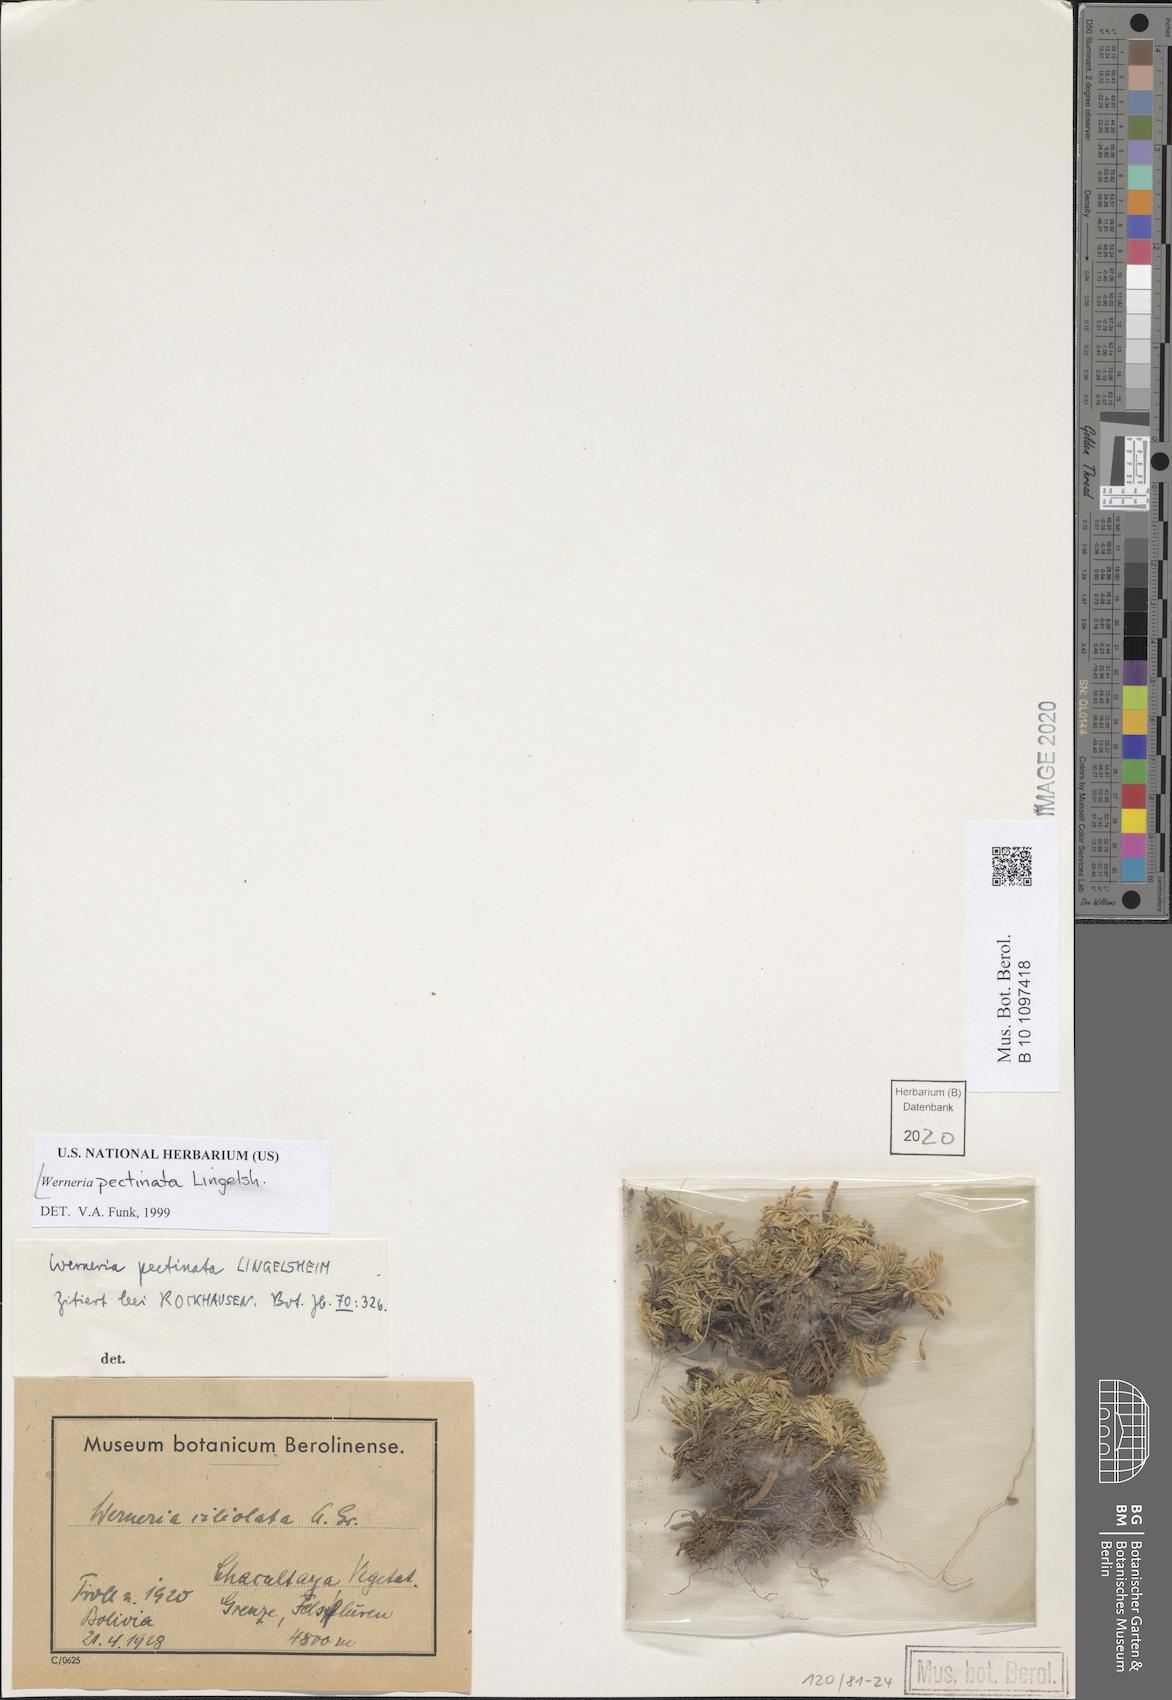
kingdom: Plantae
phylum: Tracheophyta
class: Magnoliopsida
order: Asterales
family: Asteraceae
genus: Rockhausenia
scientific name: Rockhausenia pectinata
